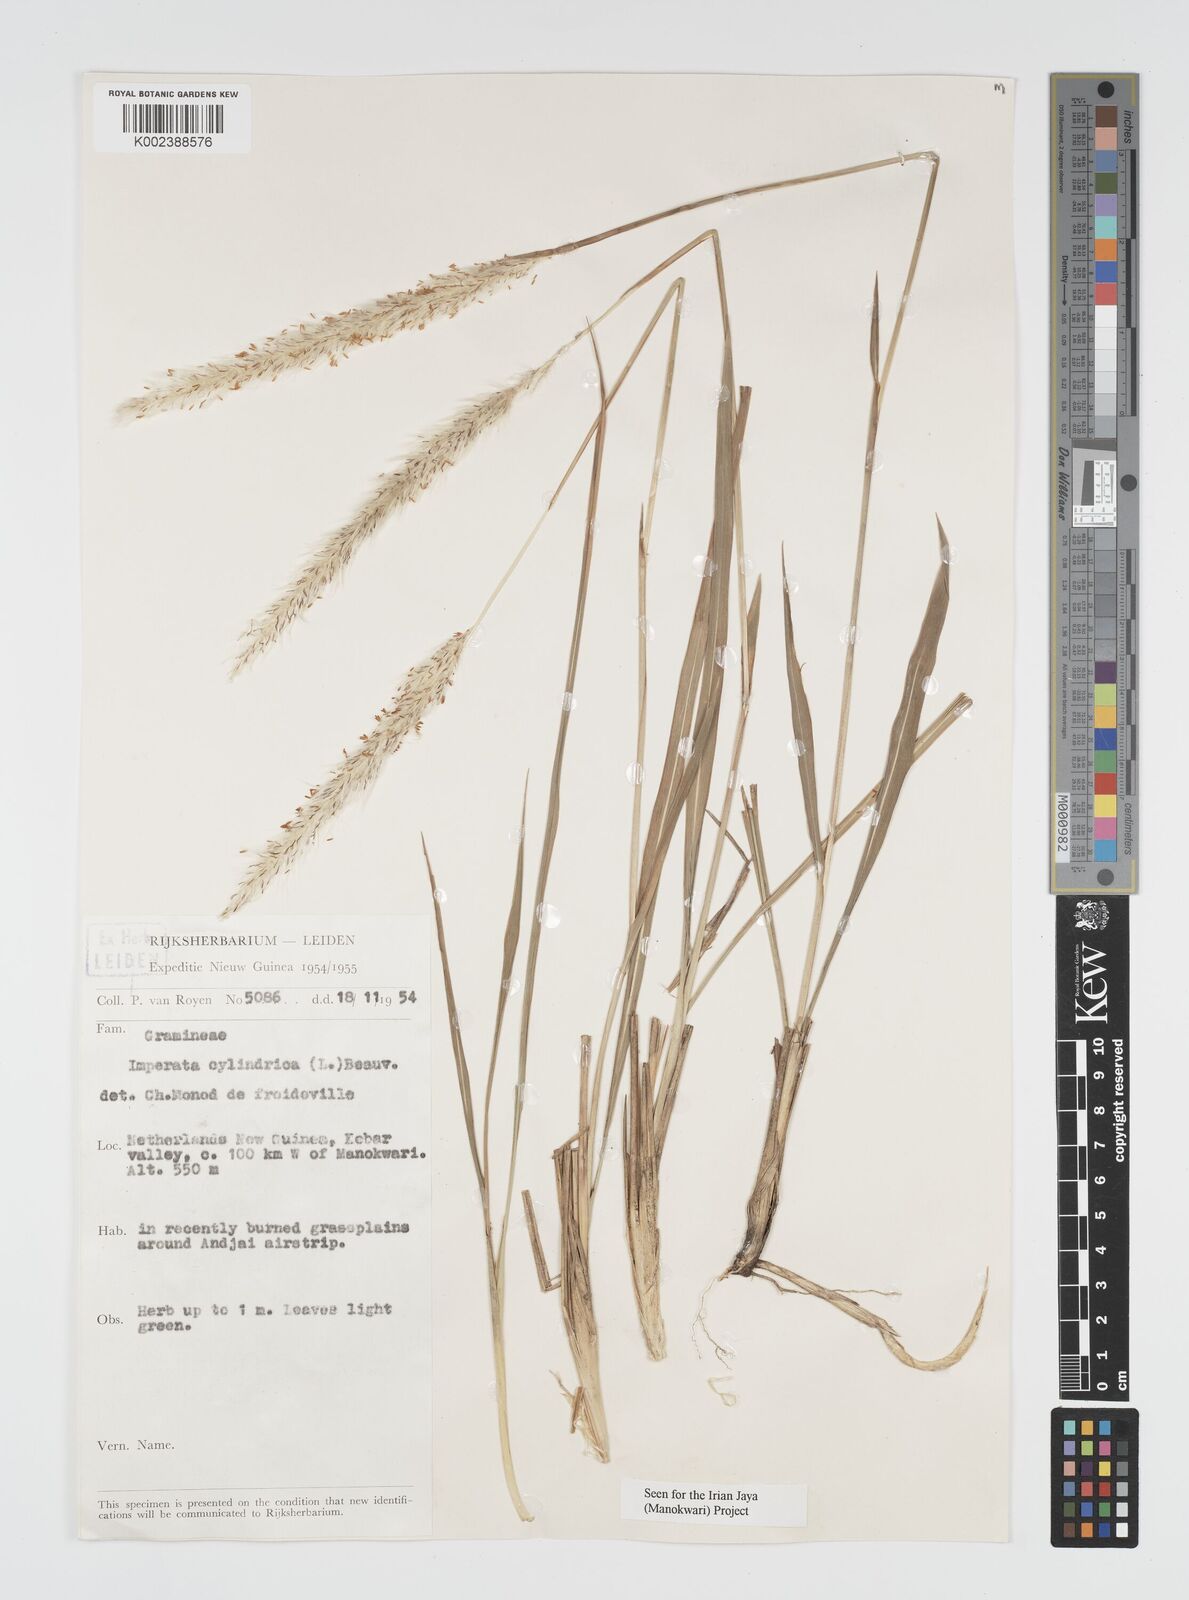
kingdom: Plantae
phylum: Tracheophyta
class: Liliopsida
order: Poales
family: Poaceae
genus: Imperata
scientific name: Imperata cylindrica
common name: Cogongrass
